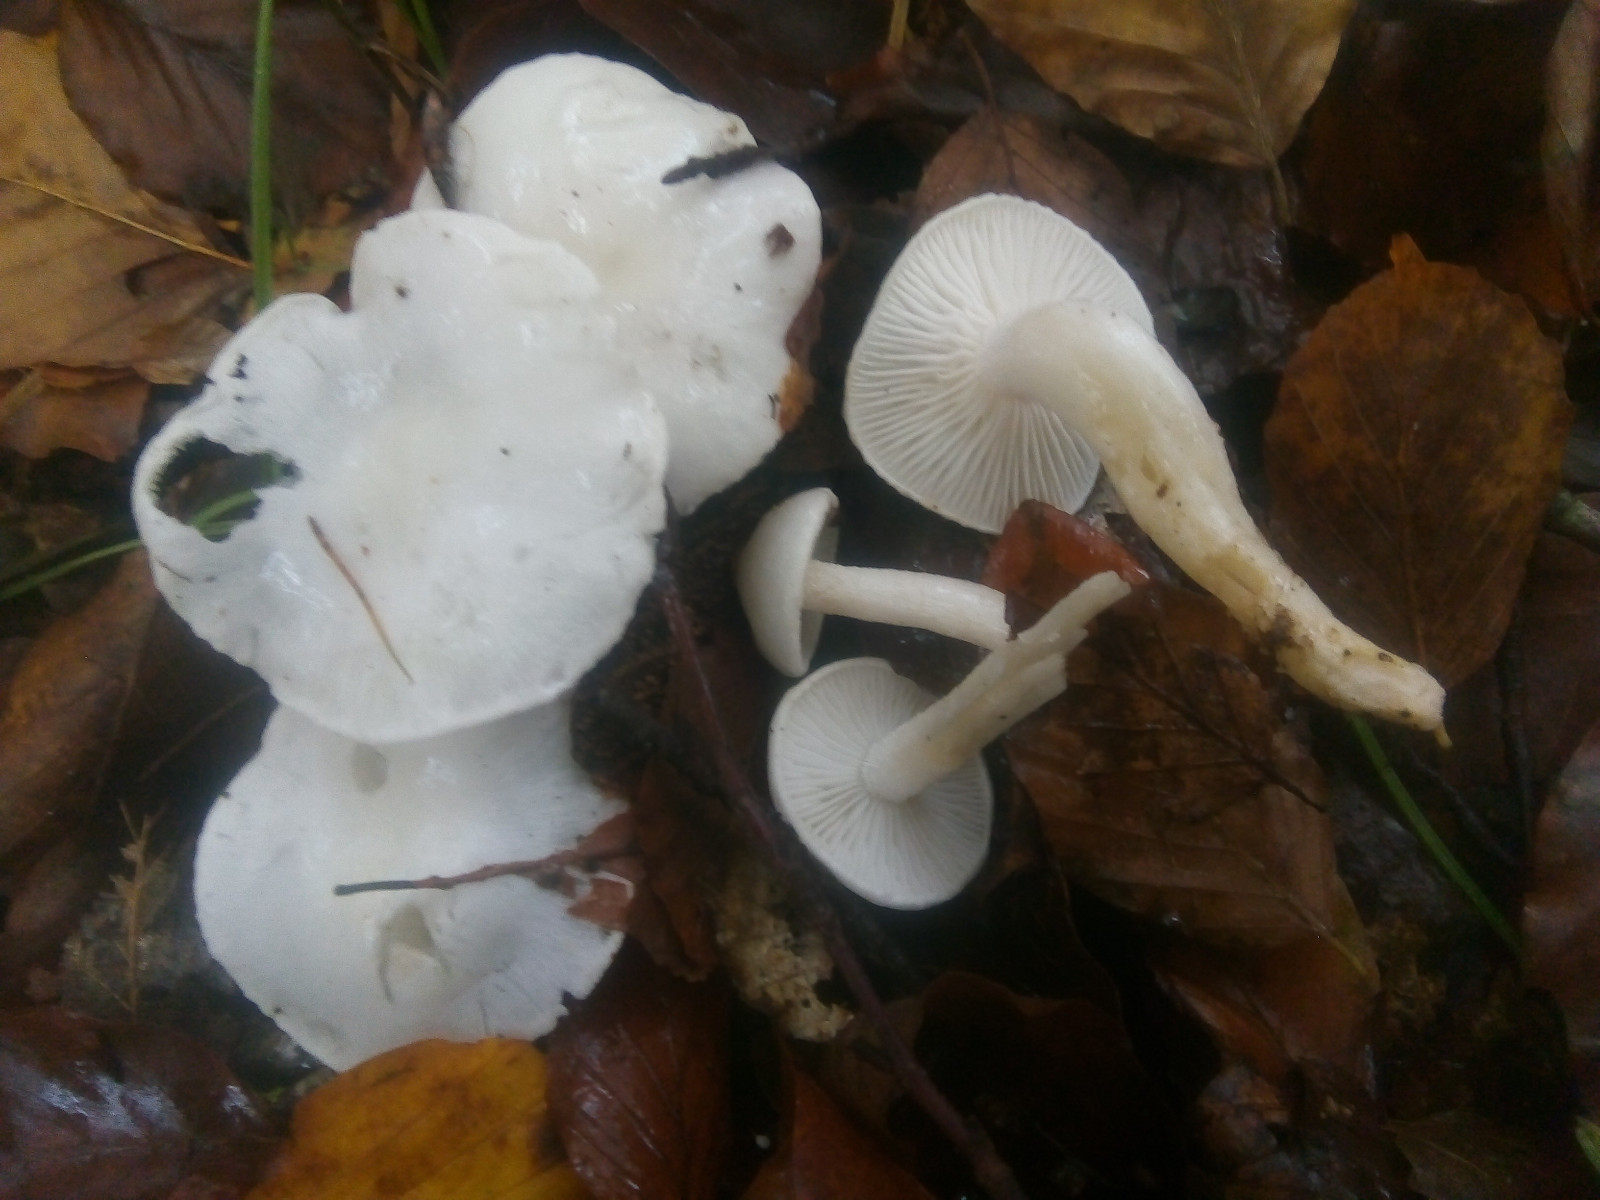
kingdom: Fungi
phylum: Basidiomycota
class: Agaricomycetes
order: Agaricales
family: Hygrophoraceae
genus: Hygrophorus
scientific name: Hygrophorus eburneus
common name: elfenbens-sneglehat
